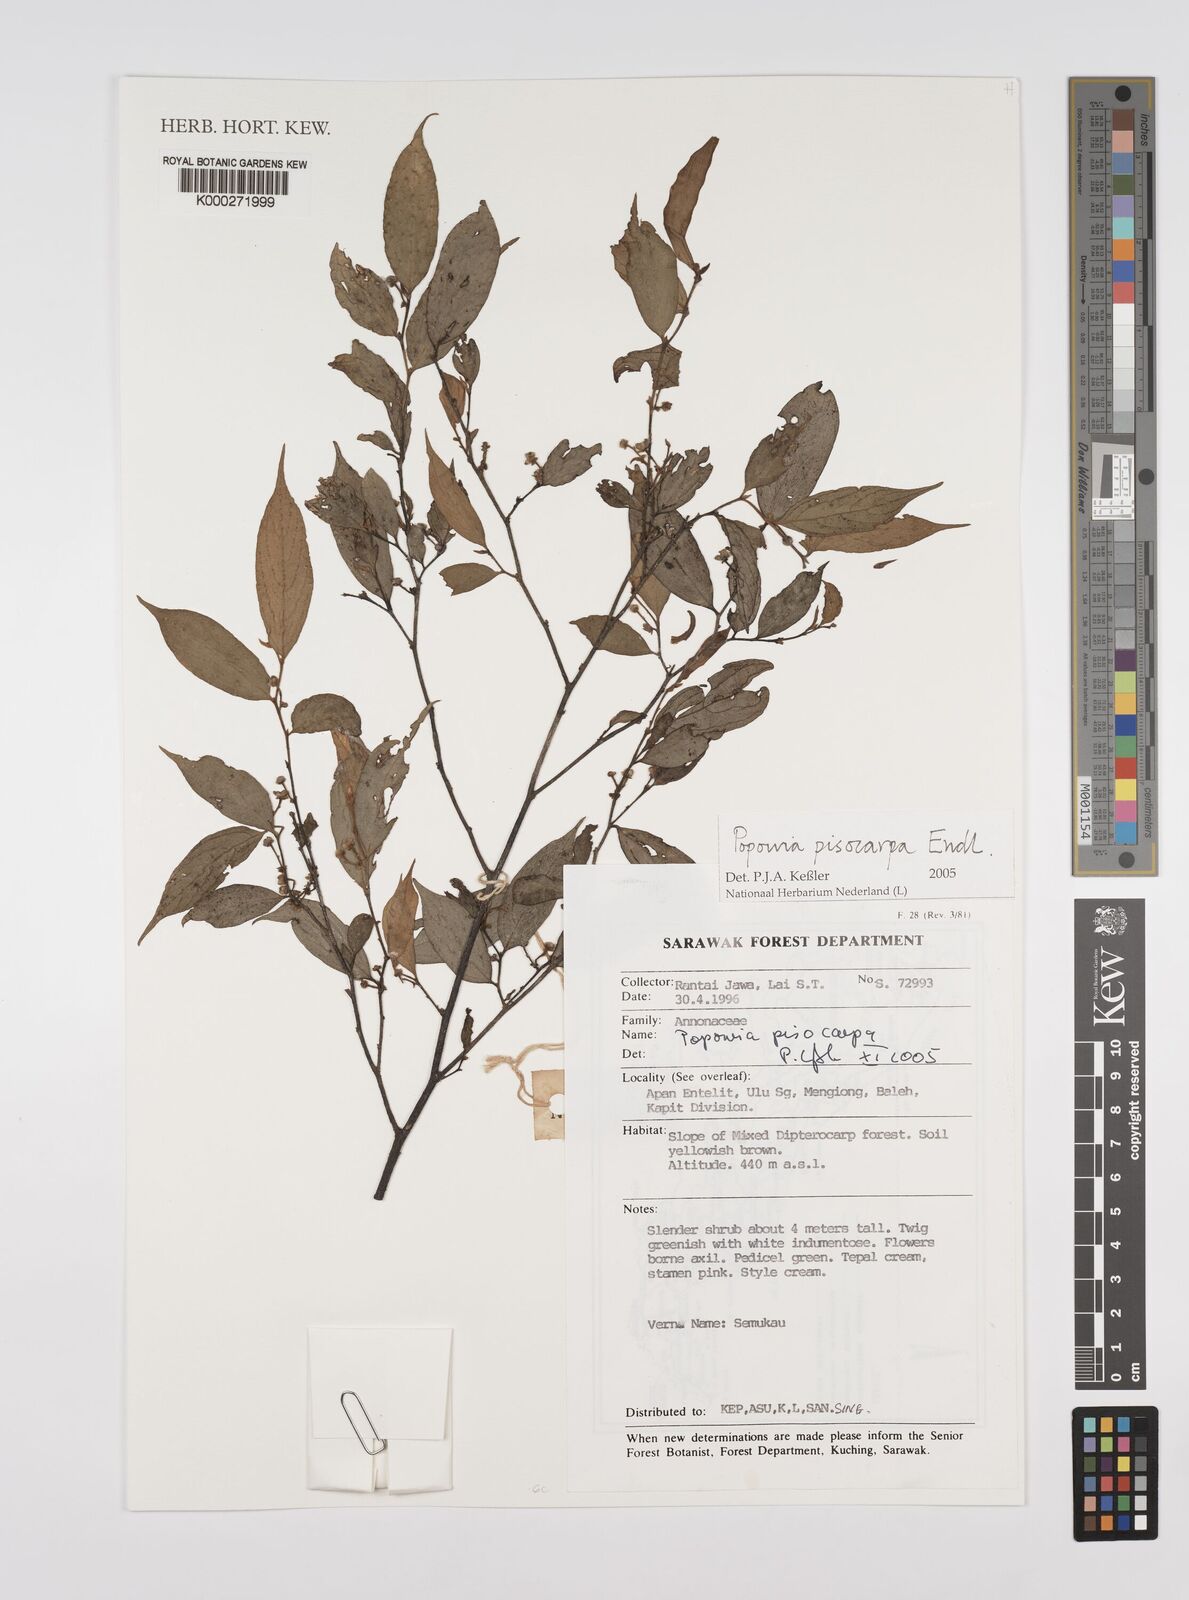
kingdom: Plantae
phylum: Tracheophyta
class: Magnoliopsida
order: Magnoliales
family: Annonaceae
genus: Popowia
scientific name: Popowia
